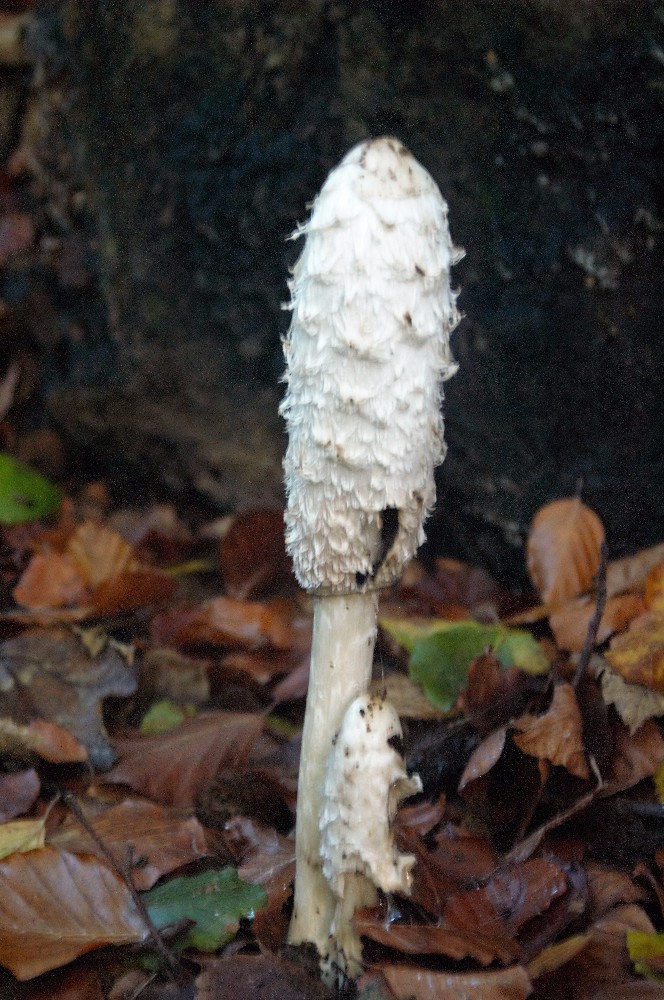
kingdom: Fungi
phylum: Basidiomycota
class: Agaricomycetes
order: Agaricales
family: Agaricaceae
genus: Coprinus
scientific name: Coprinus comatus
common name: stor parykhat
